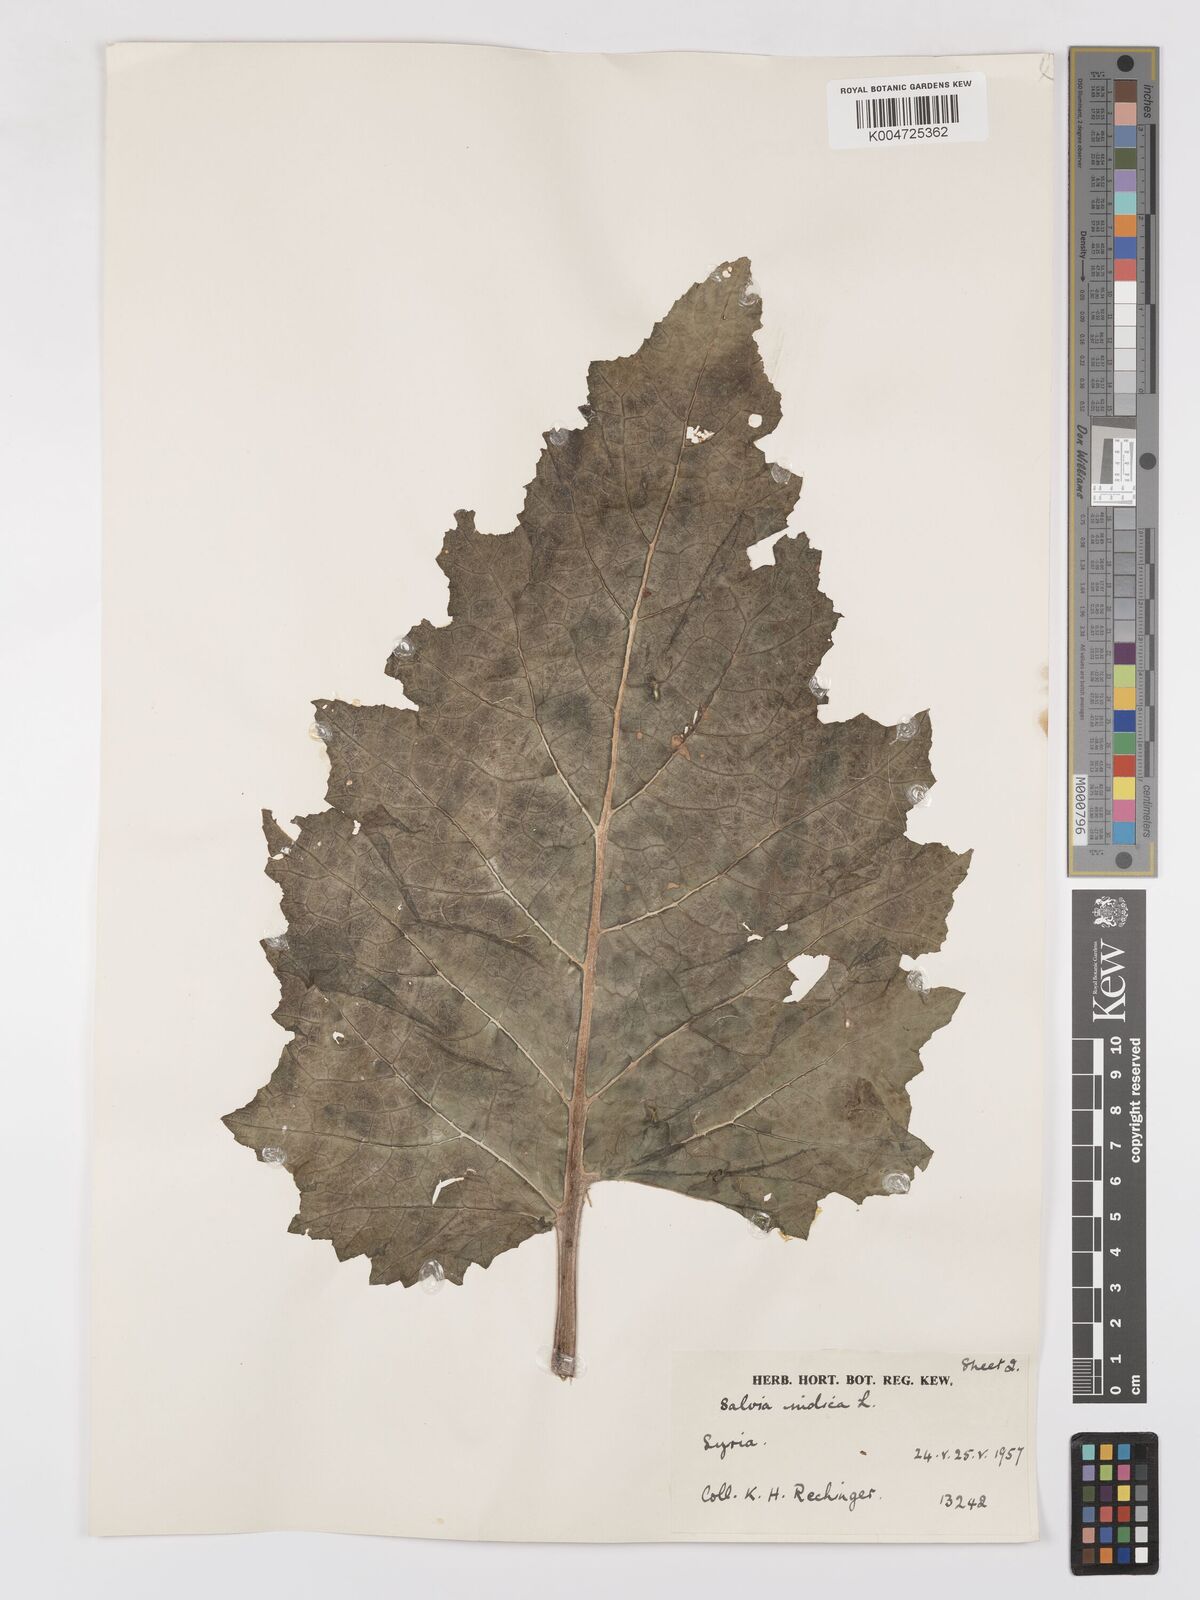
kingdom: Plantae
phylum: Tracheophyta
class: Magnoliopsida
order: Lamiales
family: Lamiaceae
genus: Salvia
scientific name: Salvia indica
